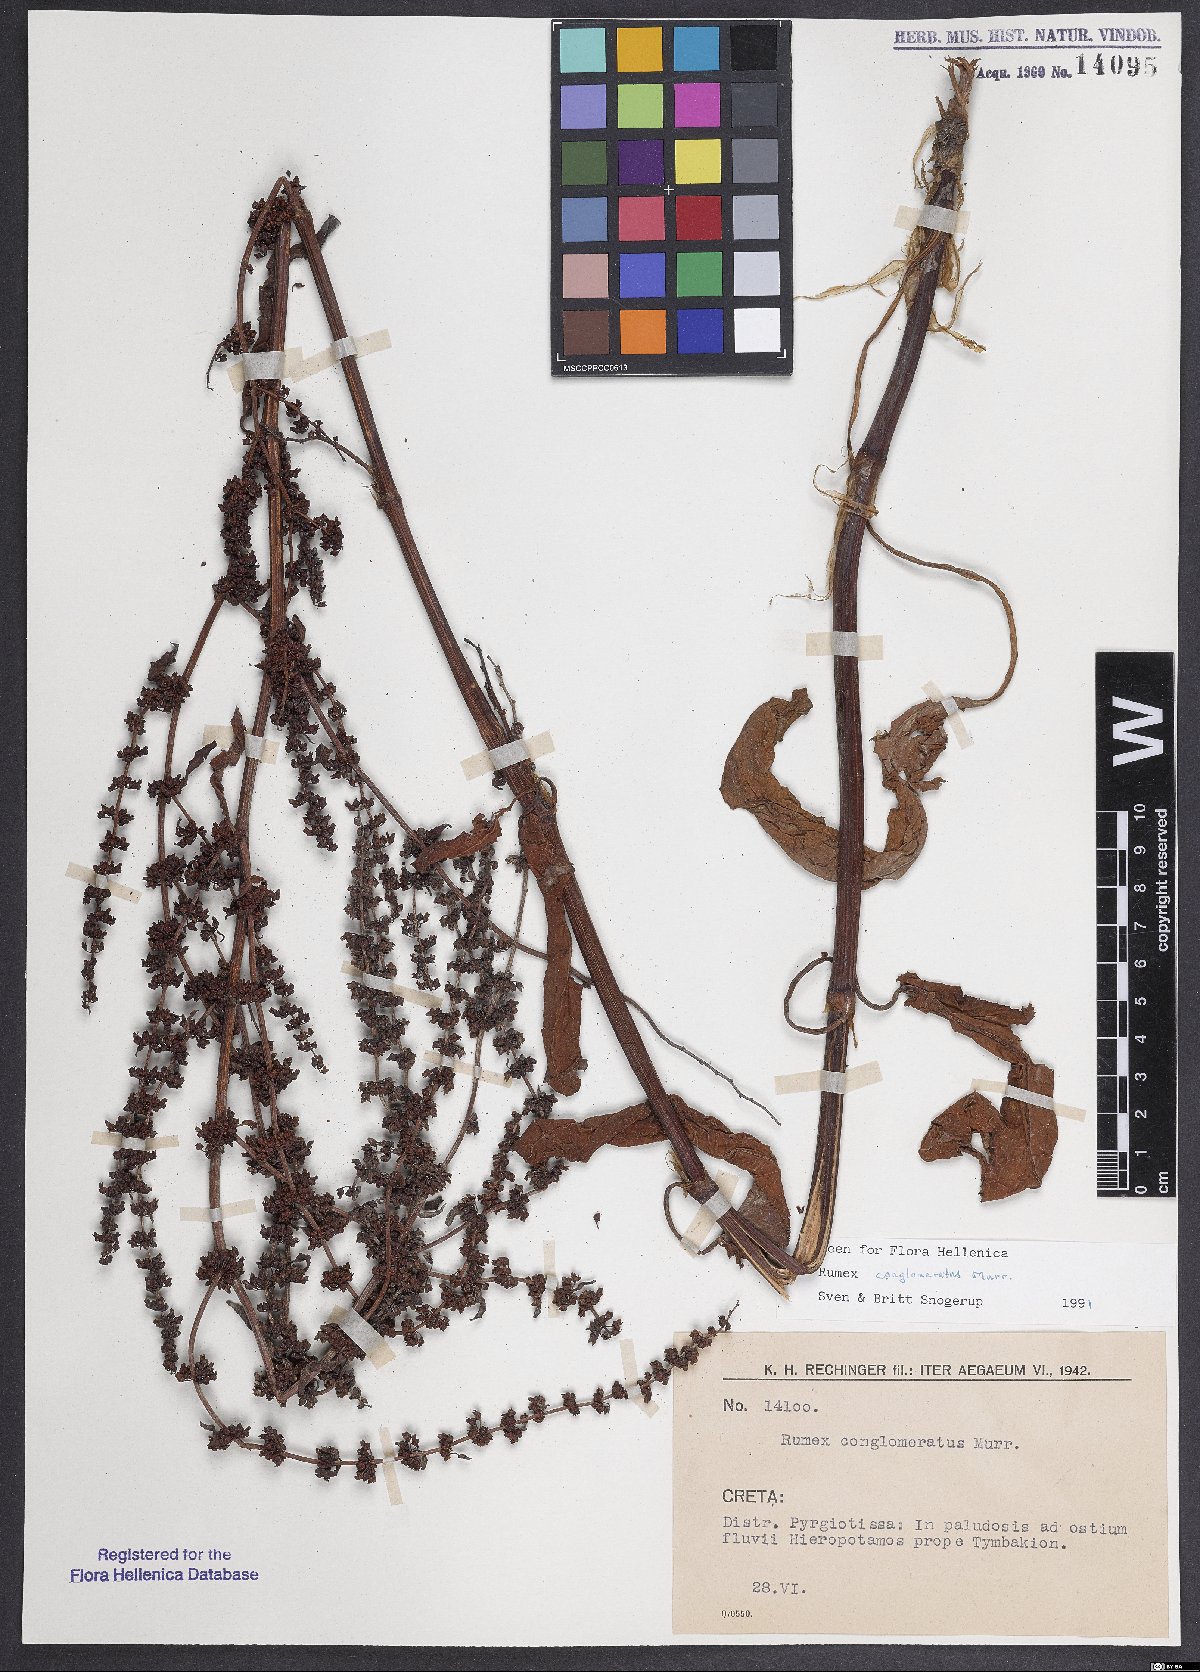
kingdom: Plantae
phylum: Tracheophyta
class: Magnoliopsida
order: Caryophyllales
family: Polygonaceae
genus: Rumex
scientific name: Rumex conglomeratus
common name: Clustered dock
